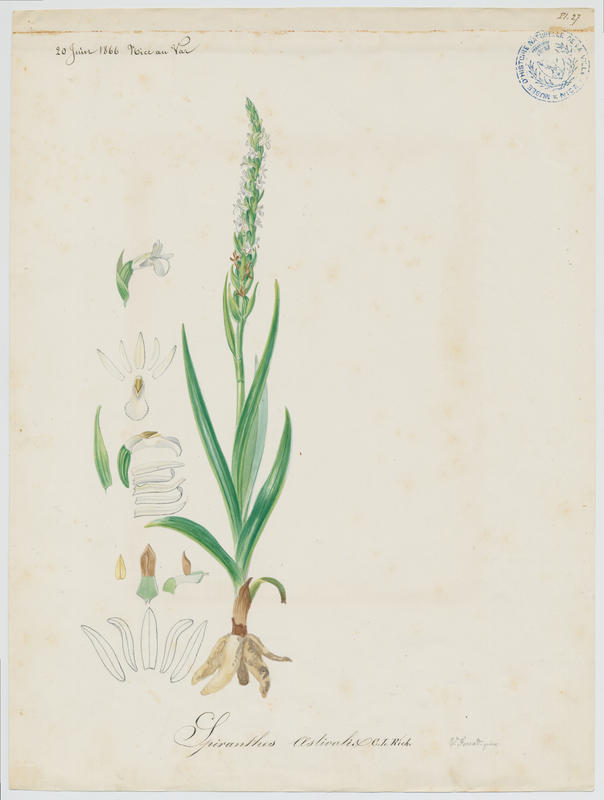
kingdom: Plantae
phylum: Tracheophyta
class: Liliopsida
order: Asparagales
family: Orchidaceae
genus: Spiranthes
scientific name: Spiranthes aestivalis
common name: Summer lady's-tresses
